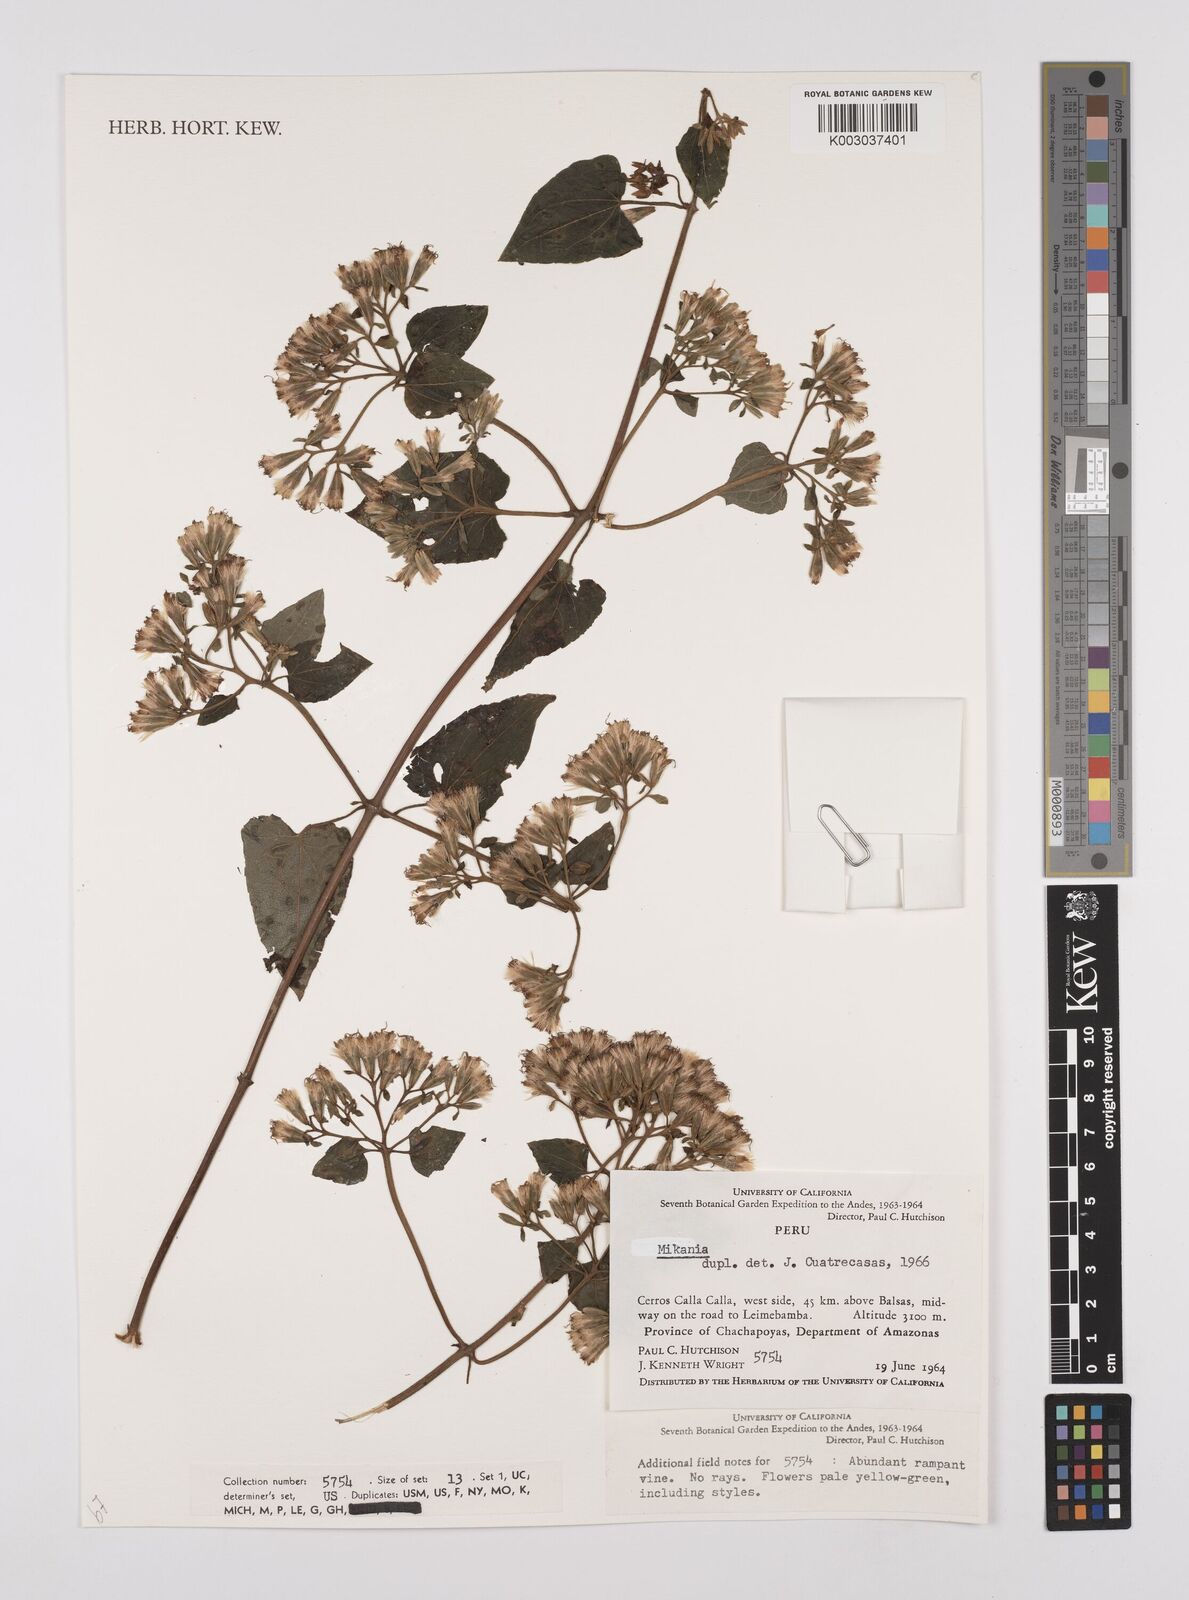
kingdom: Plantae
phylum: Tracheophyta
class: Magnoliopsida
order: Asterales
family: Asteraceae
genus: Mikania
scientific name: Mikania
